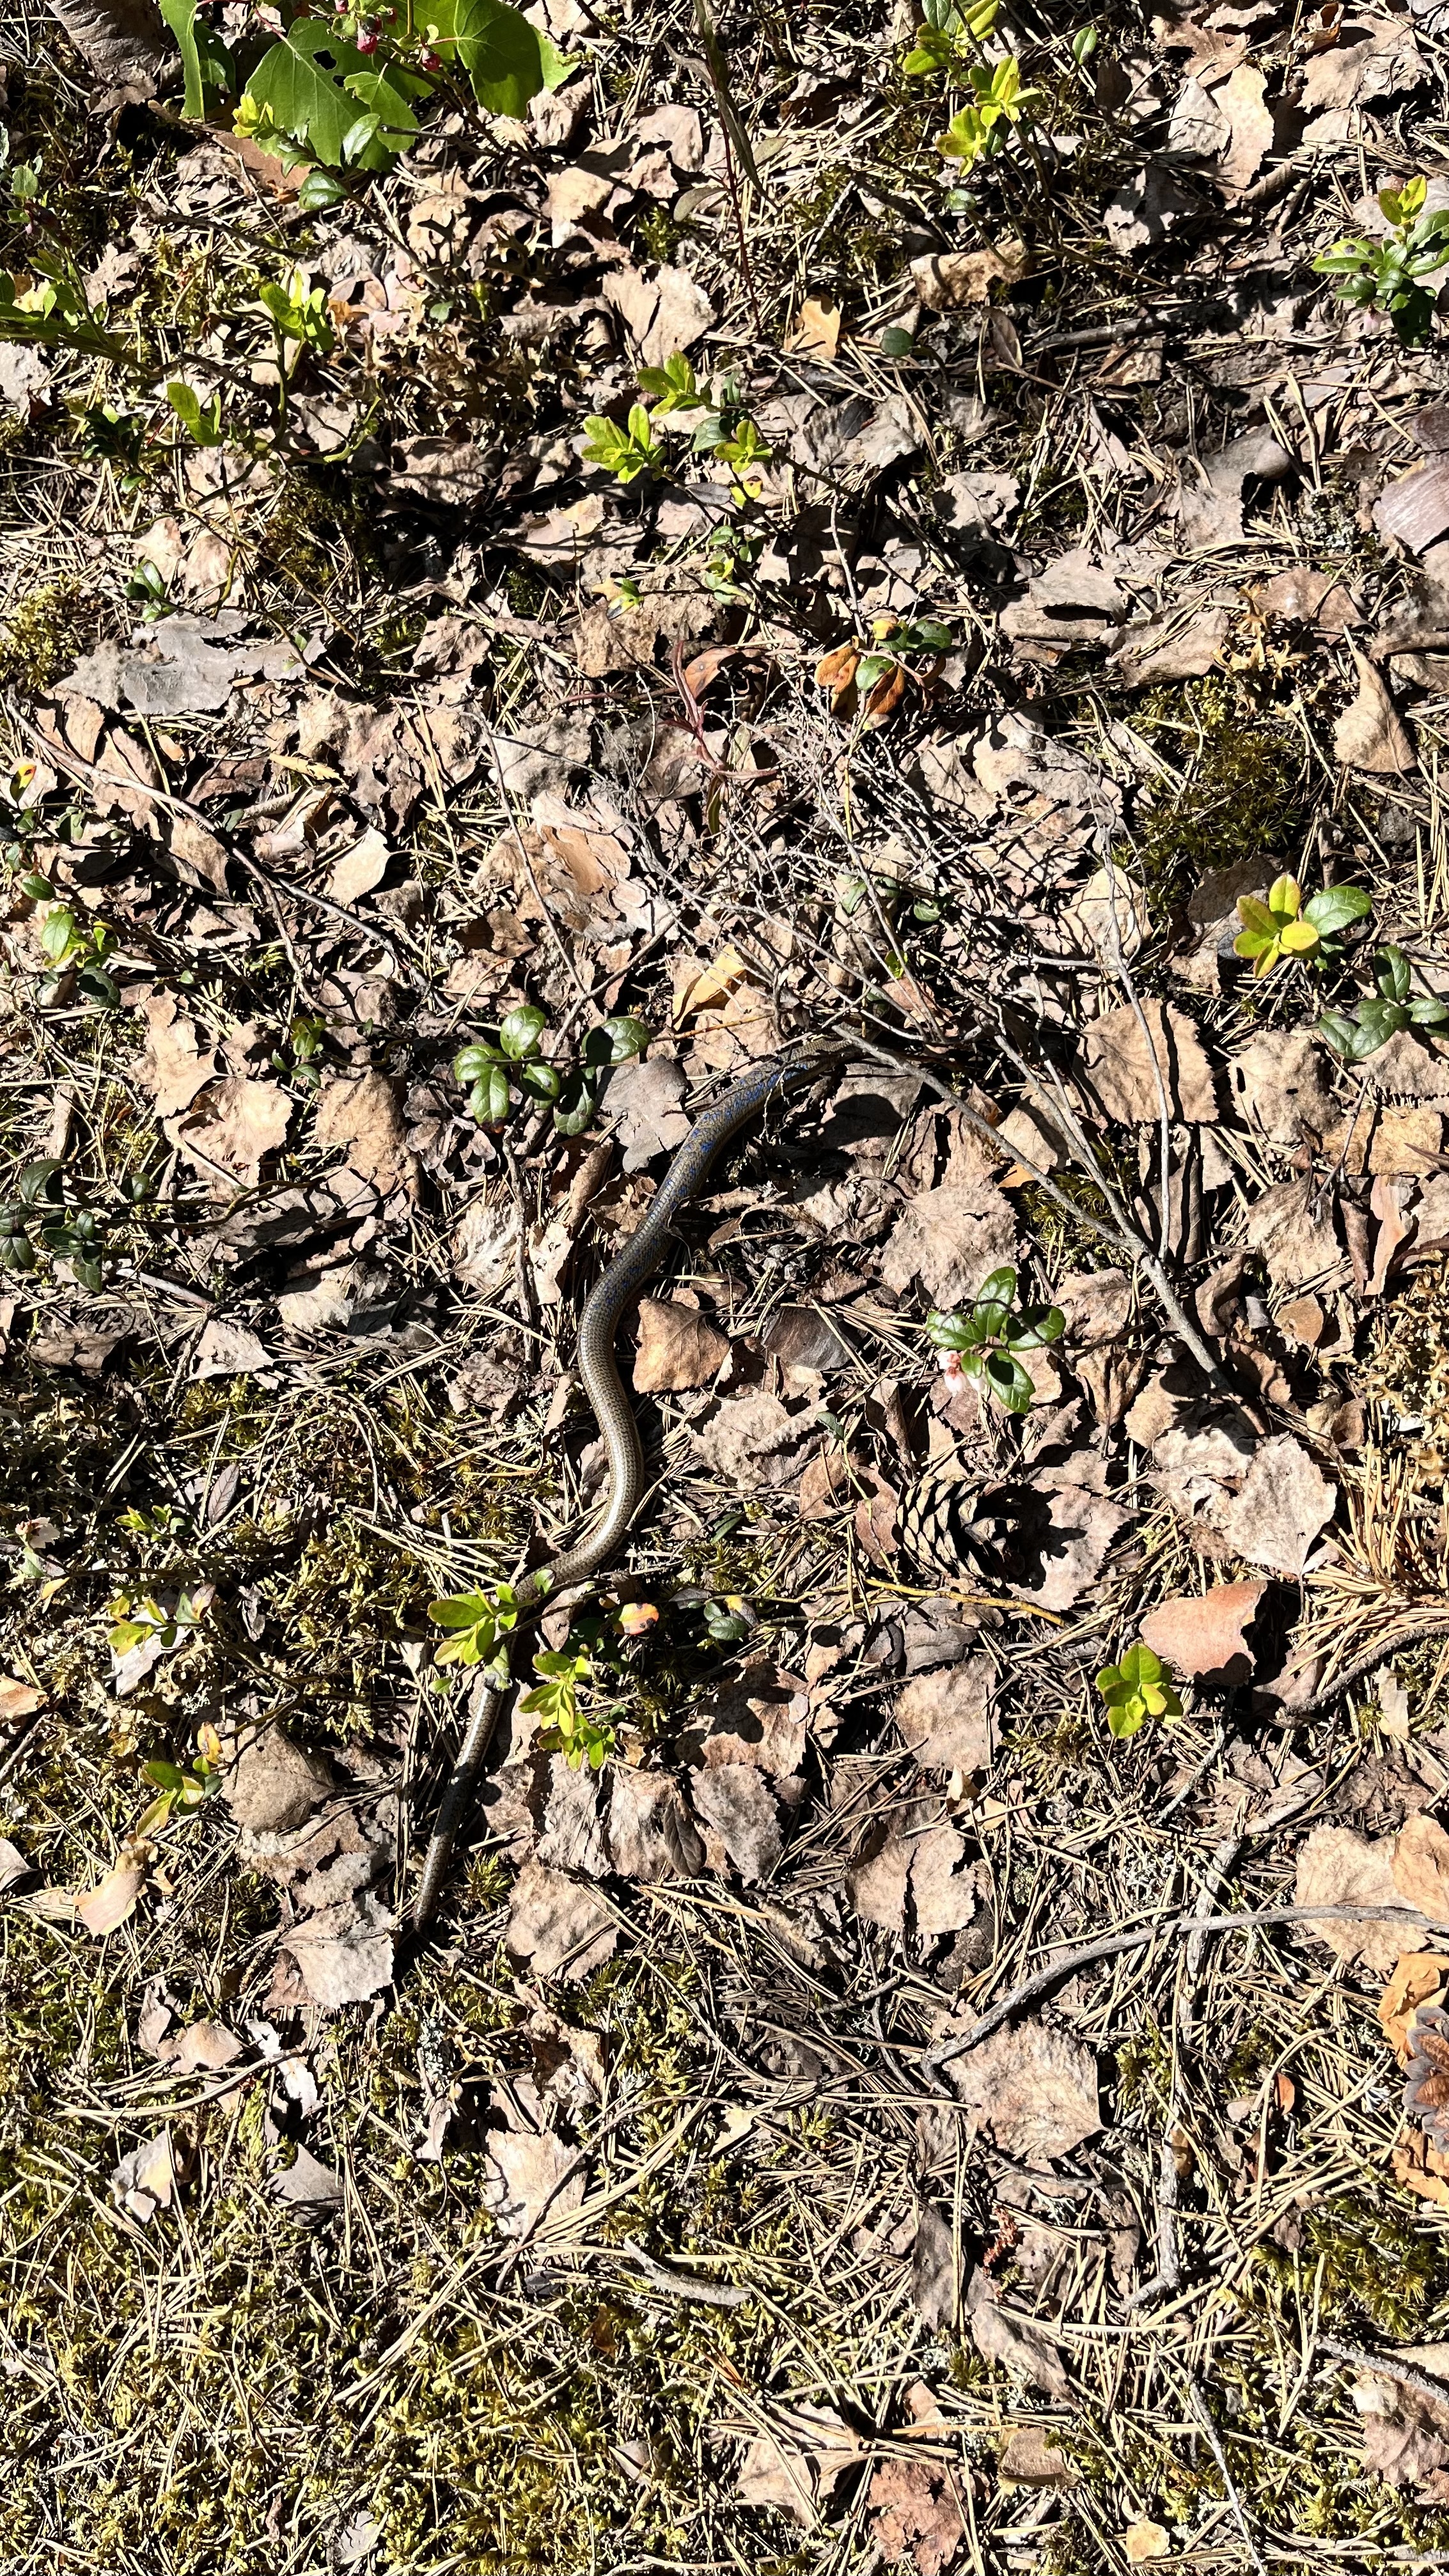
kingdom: Animalia
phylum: Chordata
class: Squamata
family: Anguidae
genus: Anguis
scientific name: Anguis colchica
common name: Slow worm
